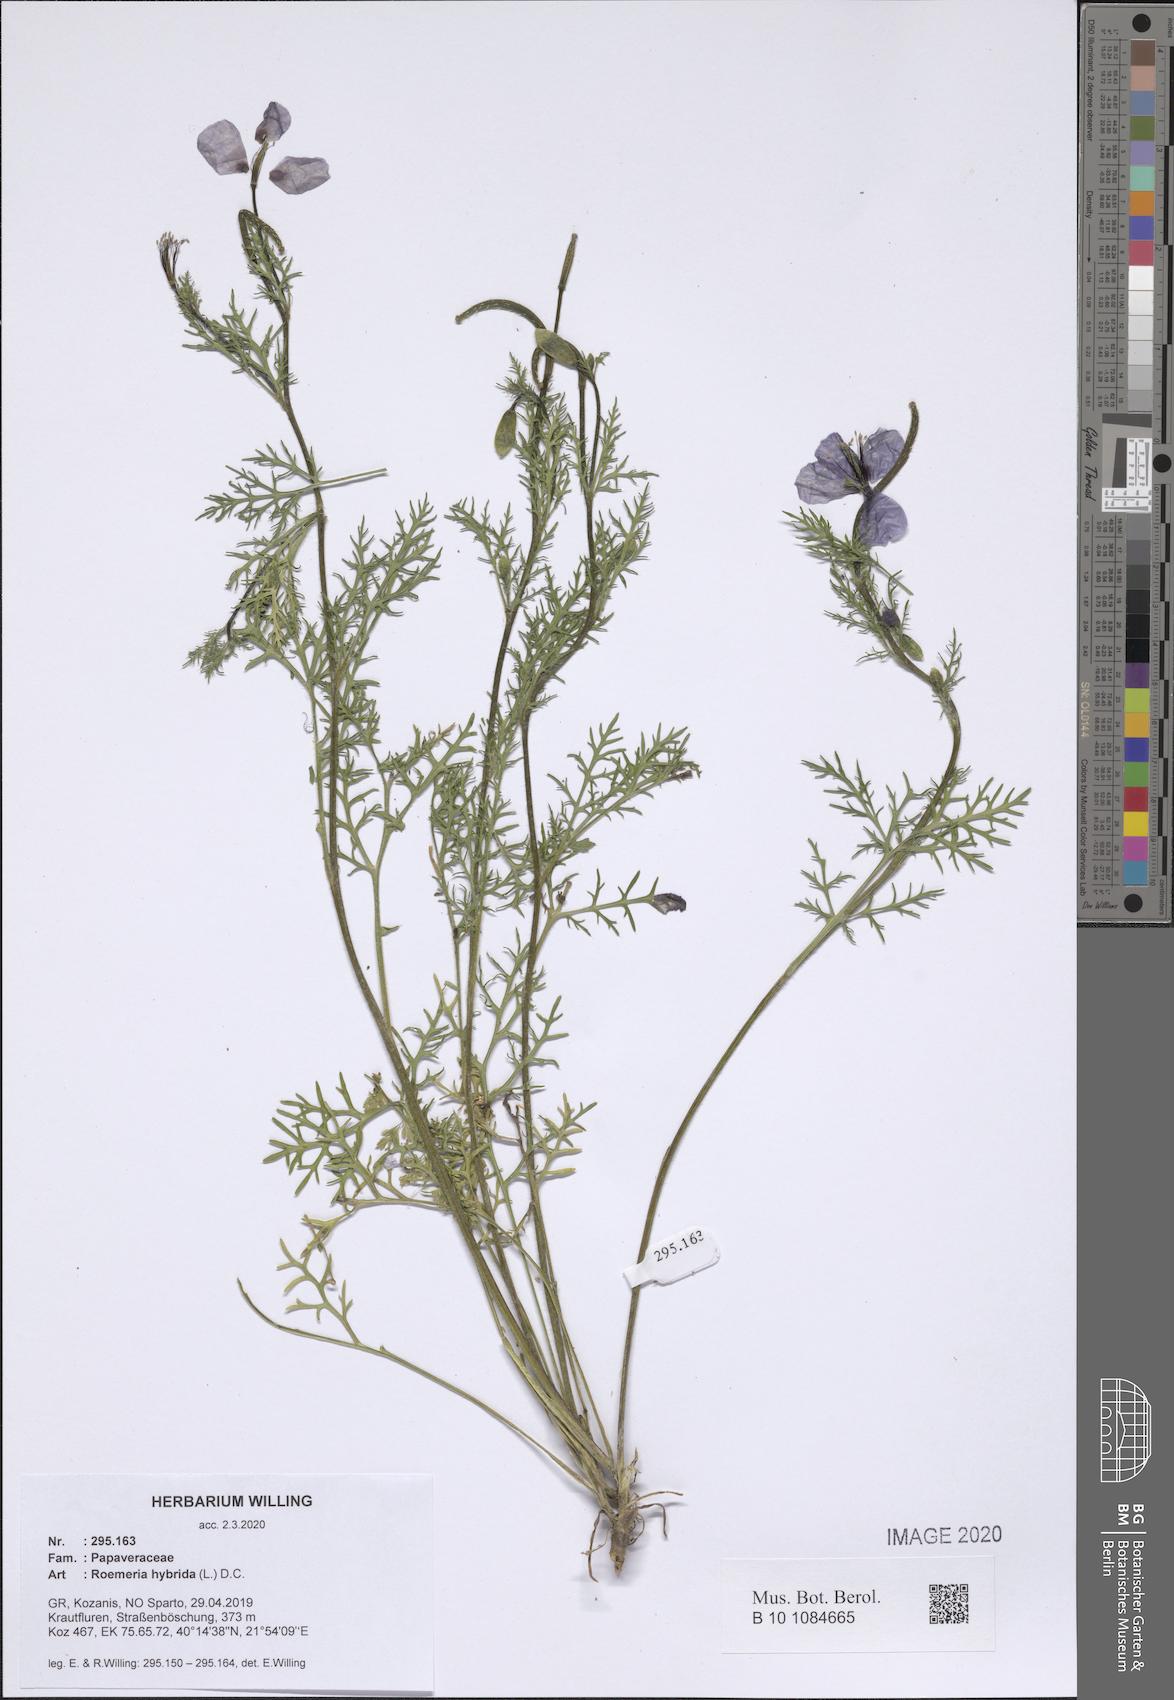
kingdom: Plantae
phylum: Tracheophyta
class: Magnoliopsida
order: Ranunculales
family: Papaveraceae
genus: Roemeria
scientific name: Roemeria hybrida
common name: Violet horned-poppy
